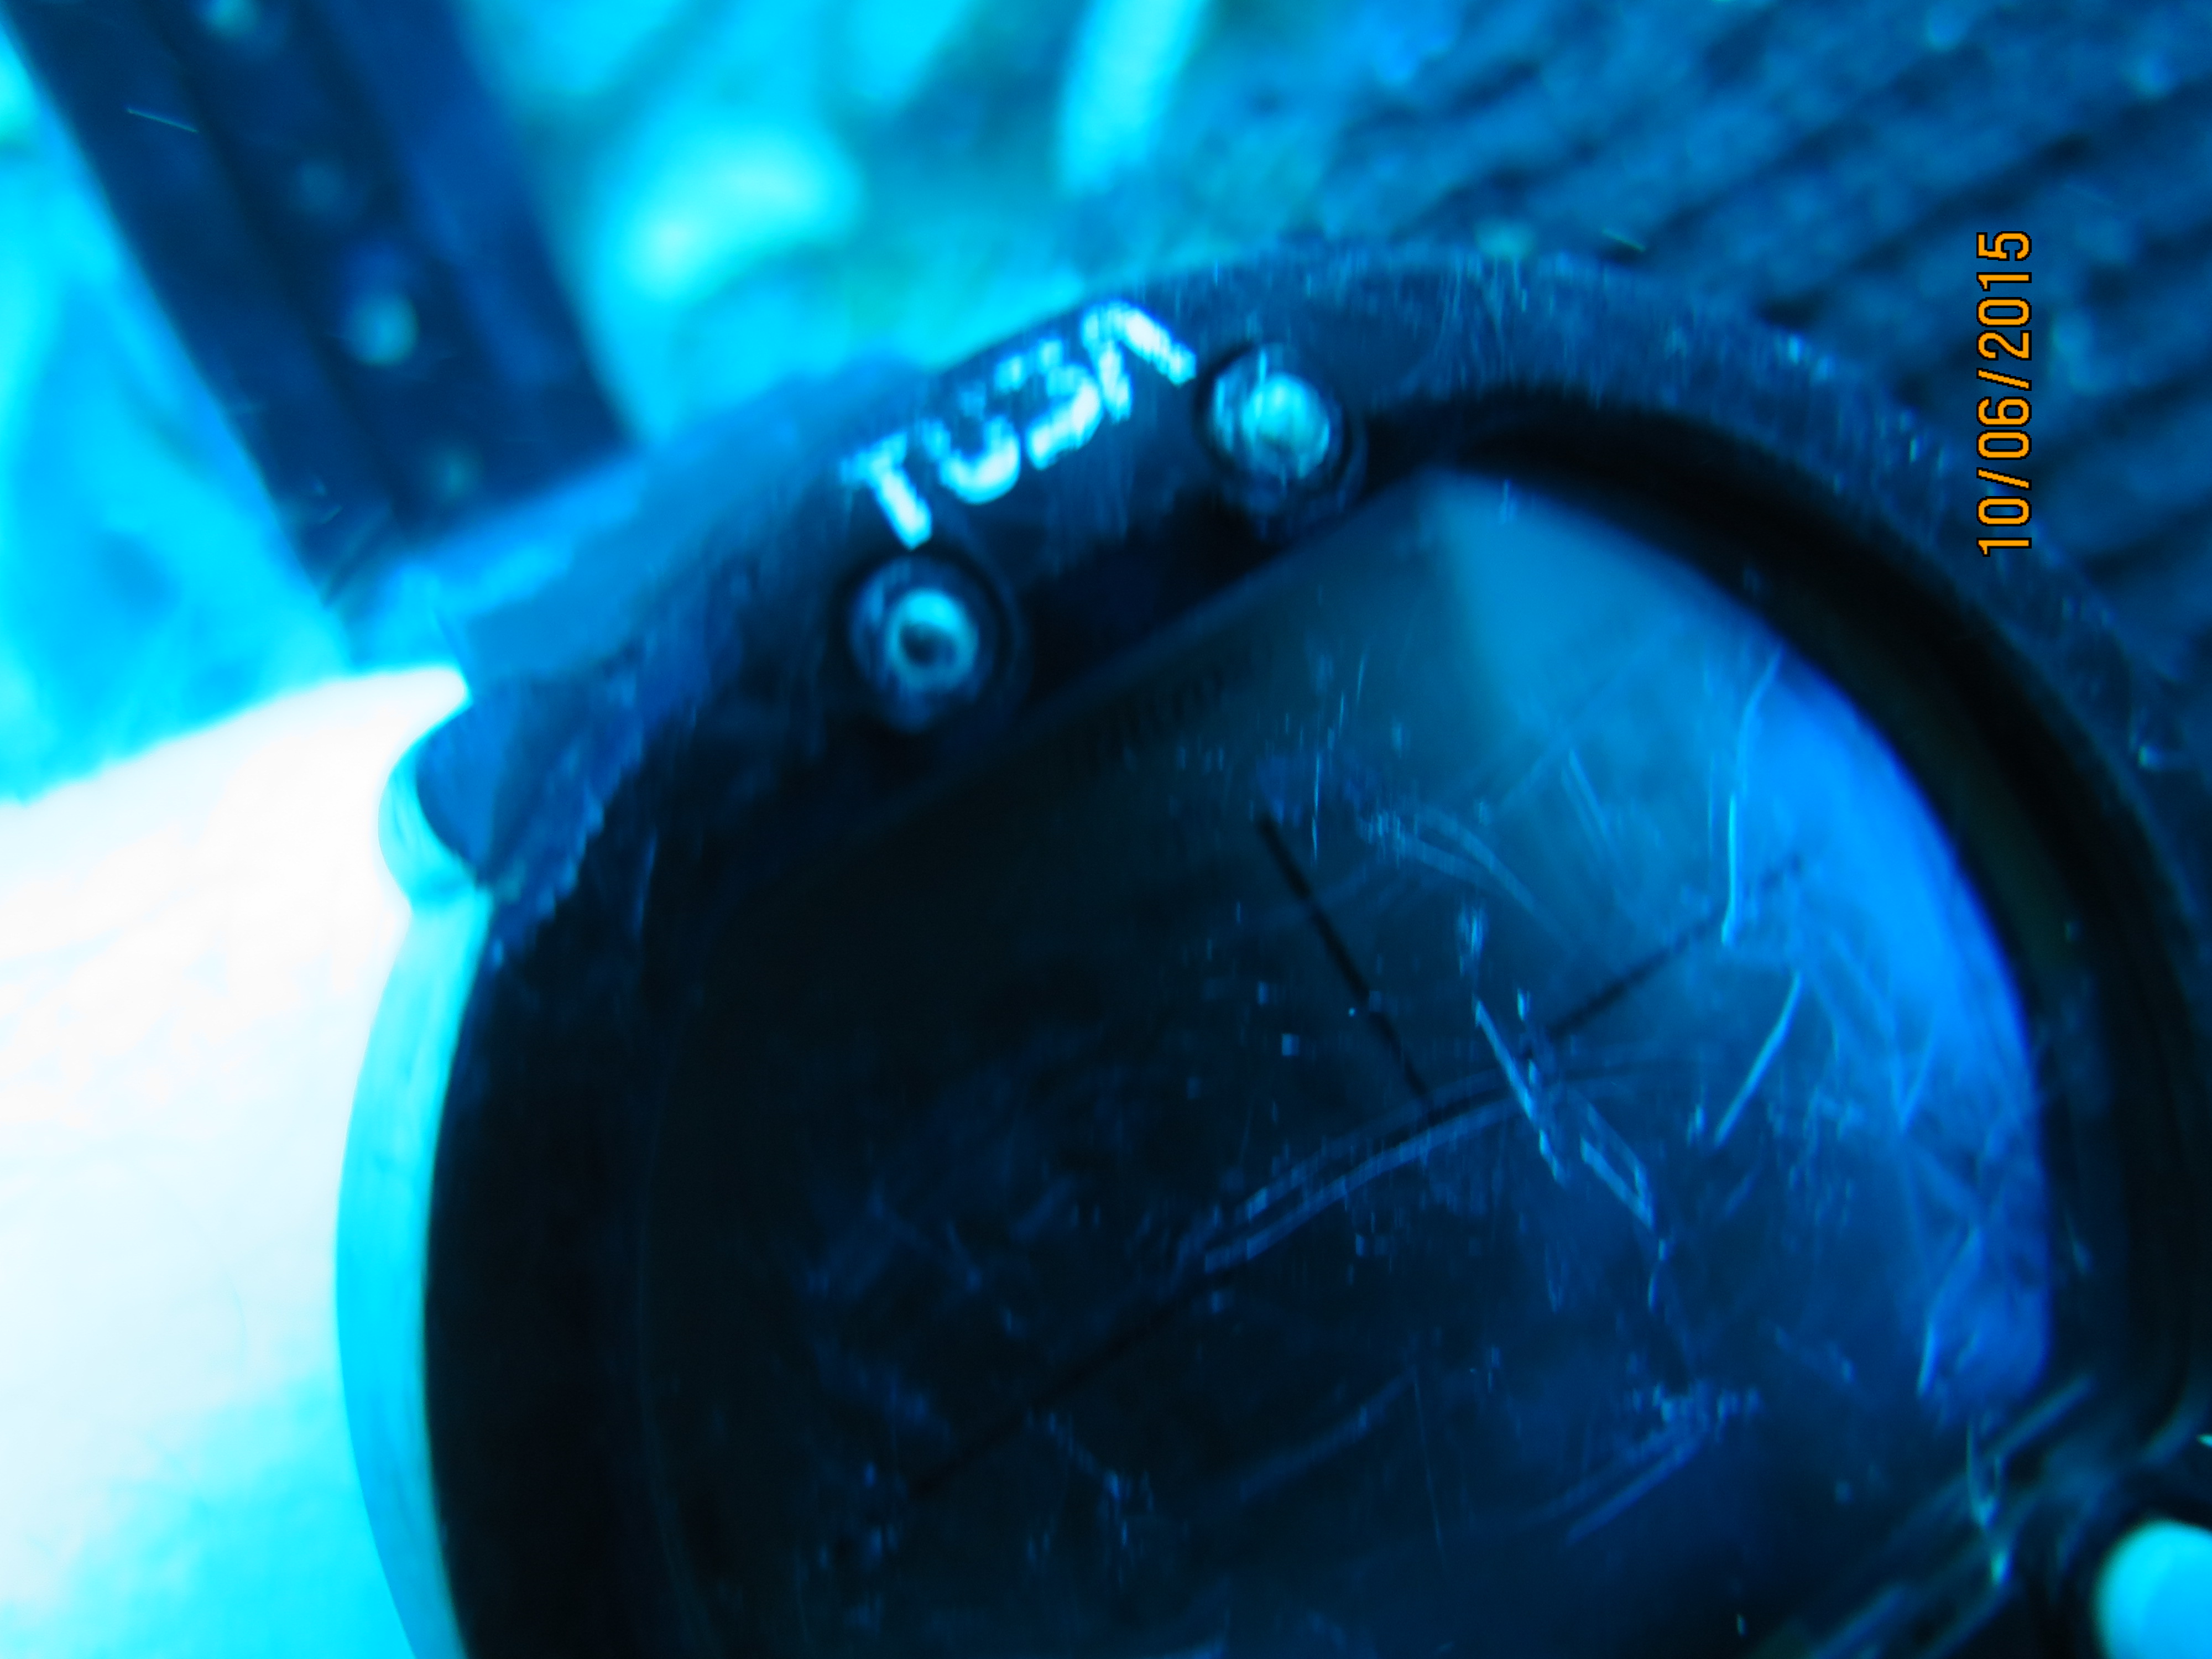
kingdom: Animalia
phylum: Cnidaria
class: Anthozoa
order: Scleractinia
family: Meandrinidae
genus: Meandrina
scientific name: Meandrina meandrites
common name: Maze coral
